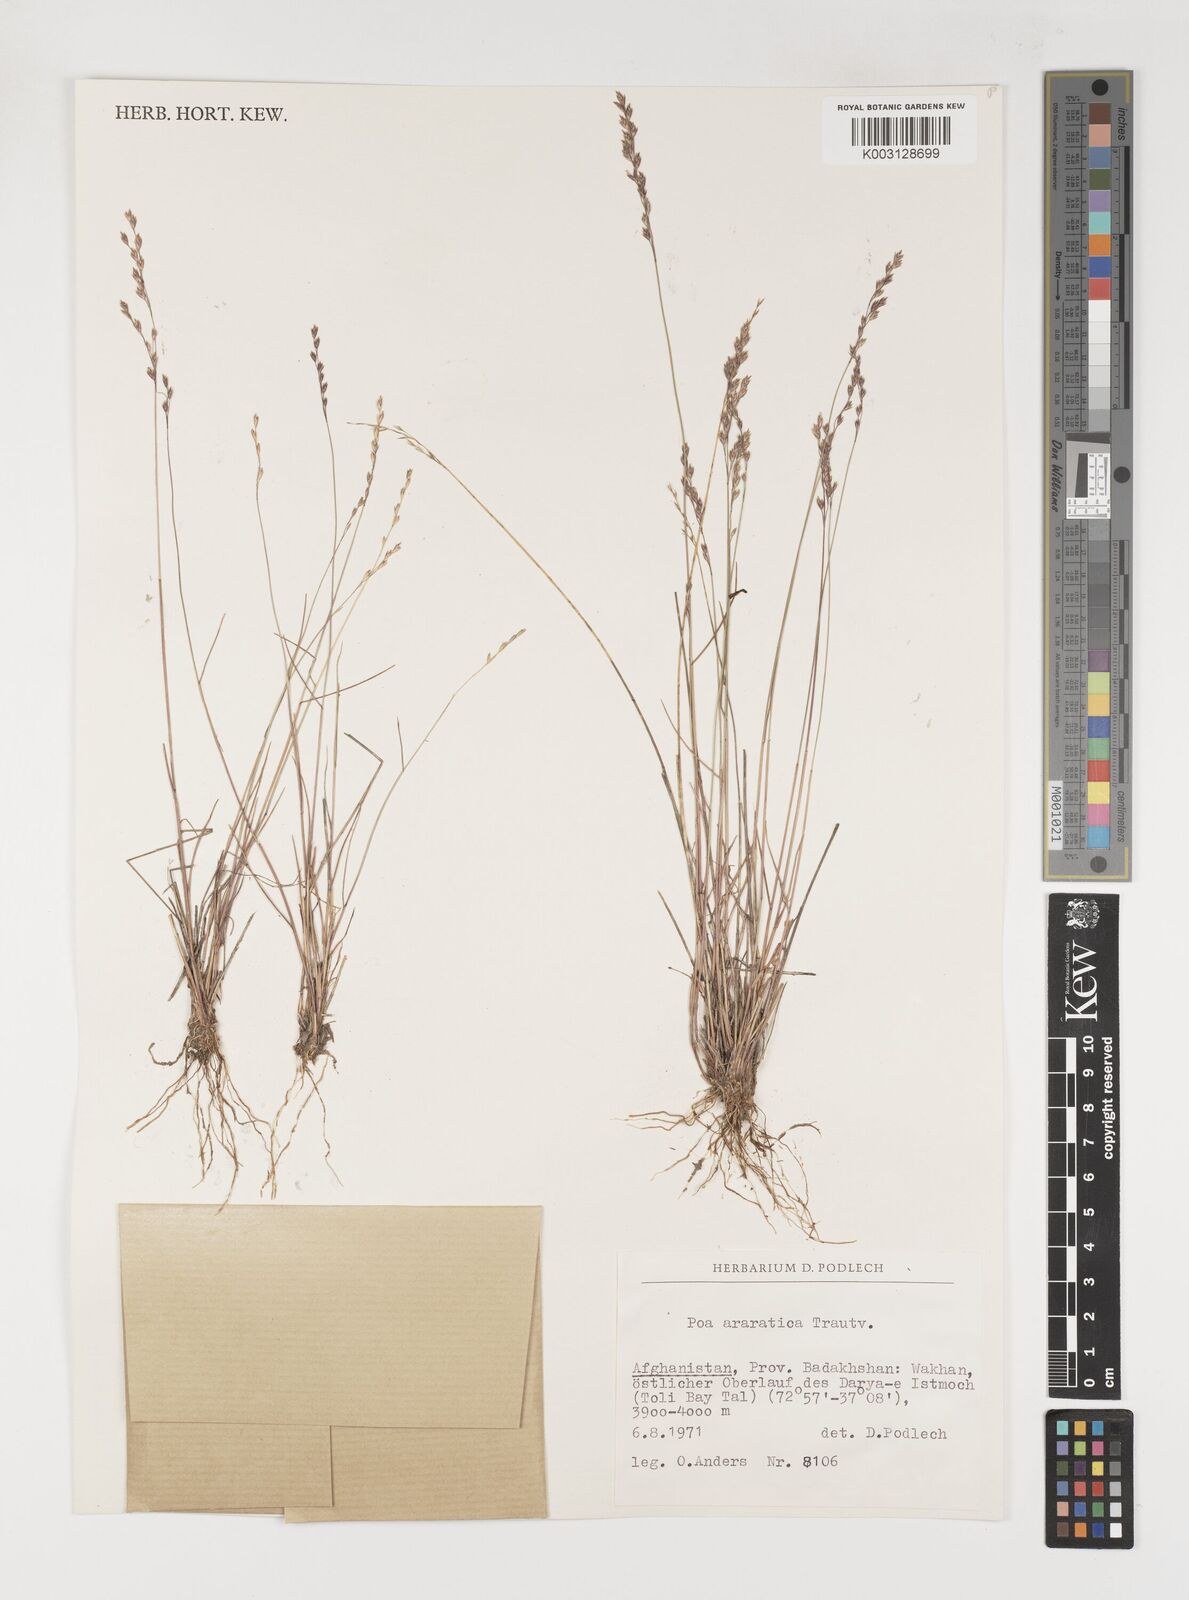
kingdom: Plantae
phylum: Tracheophyta
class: Liliopsida
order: Poales
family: Poaceae
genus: Poa
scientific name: Poa araratica
